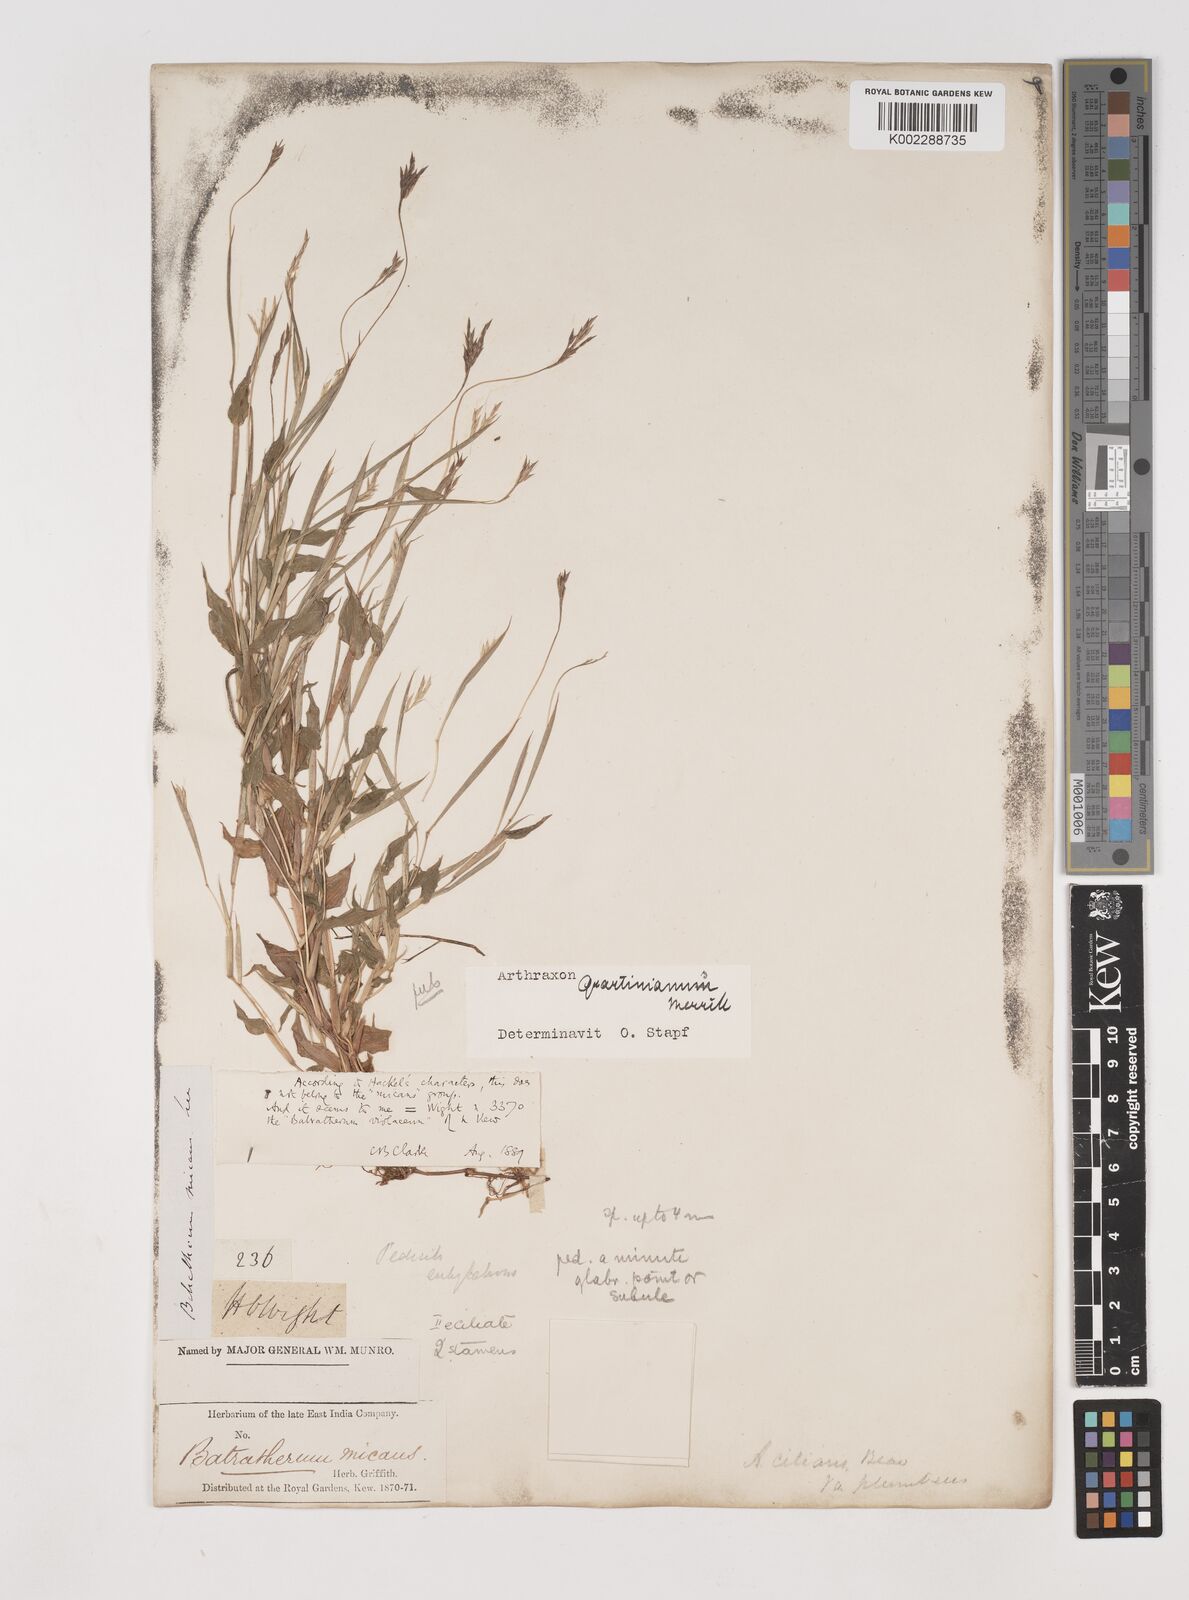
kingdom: Plantae
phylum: Tracheophyta
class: Liliopsida
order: Poales
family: Poaceae
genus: Arthraxon
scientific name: Arthraxon hispidus
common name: Small carpgrass
